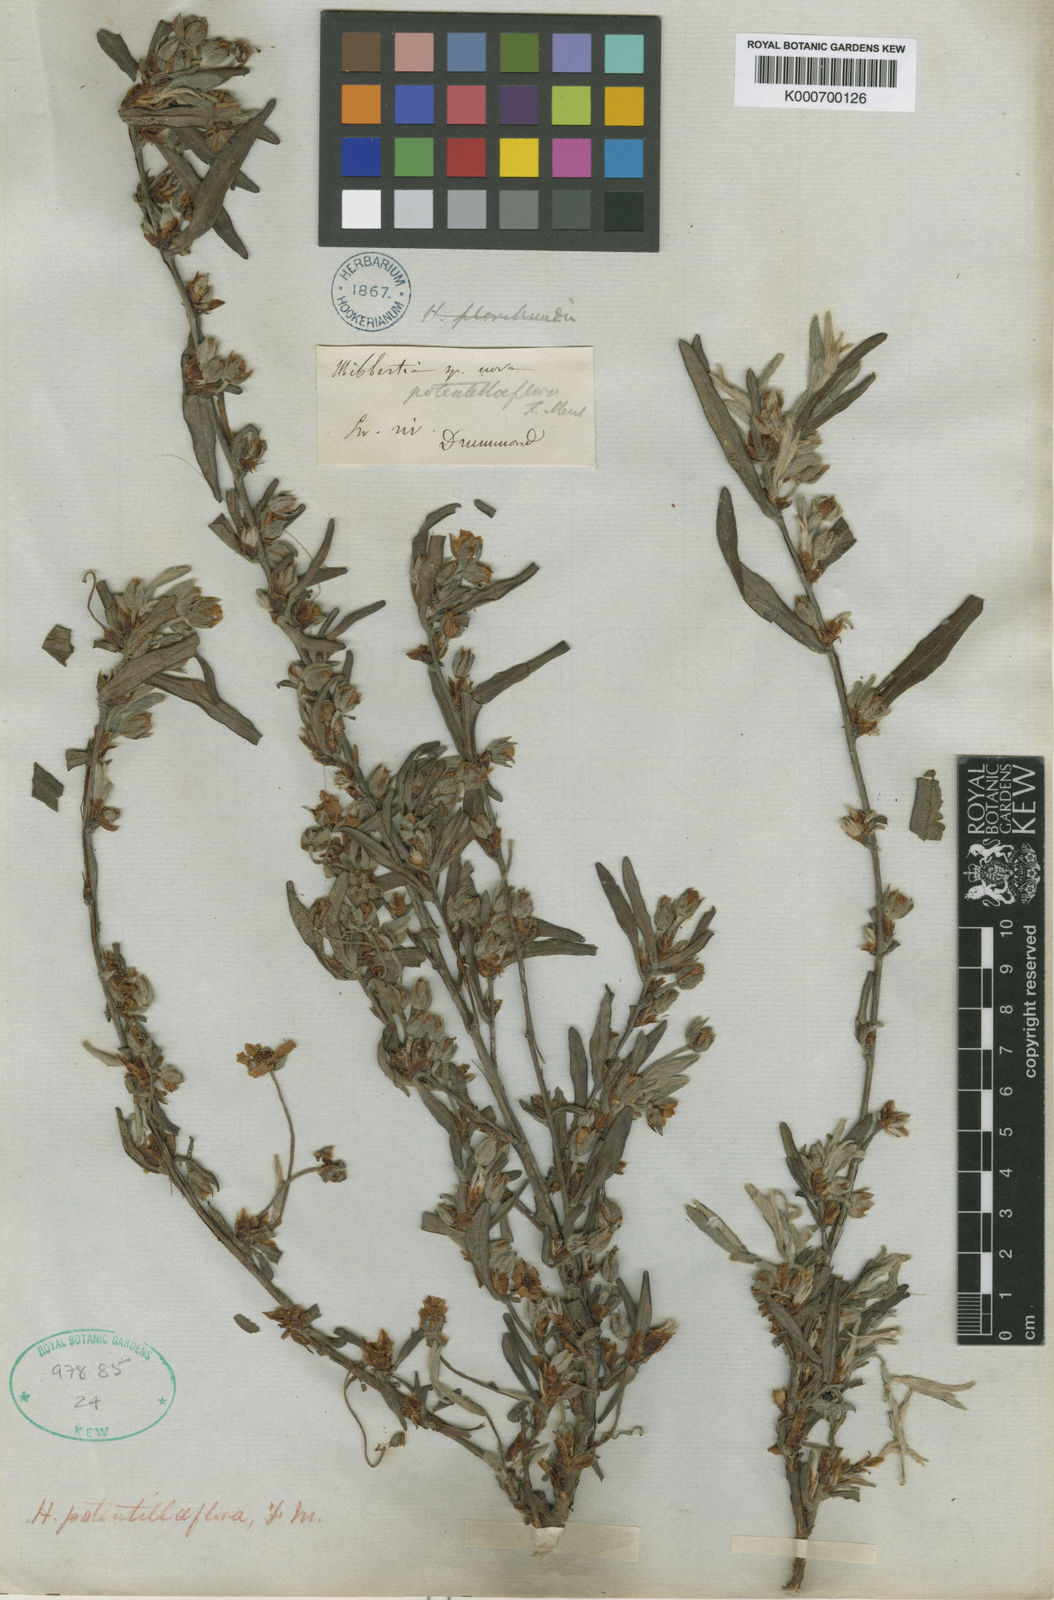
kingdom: Plantae
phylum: Tracheophyta
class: Magnoliopsida
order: Dilleniales
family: Dilleniaceae
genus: Hibbertia
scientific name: Hibbertia potentilliflora
